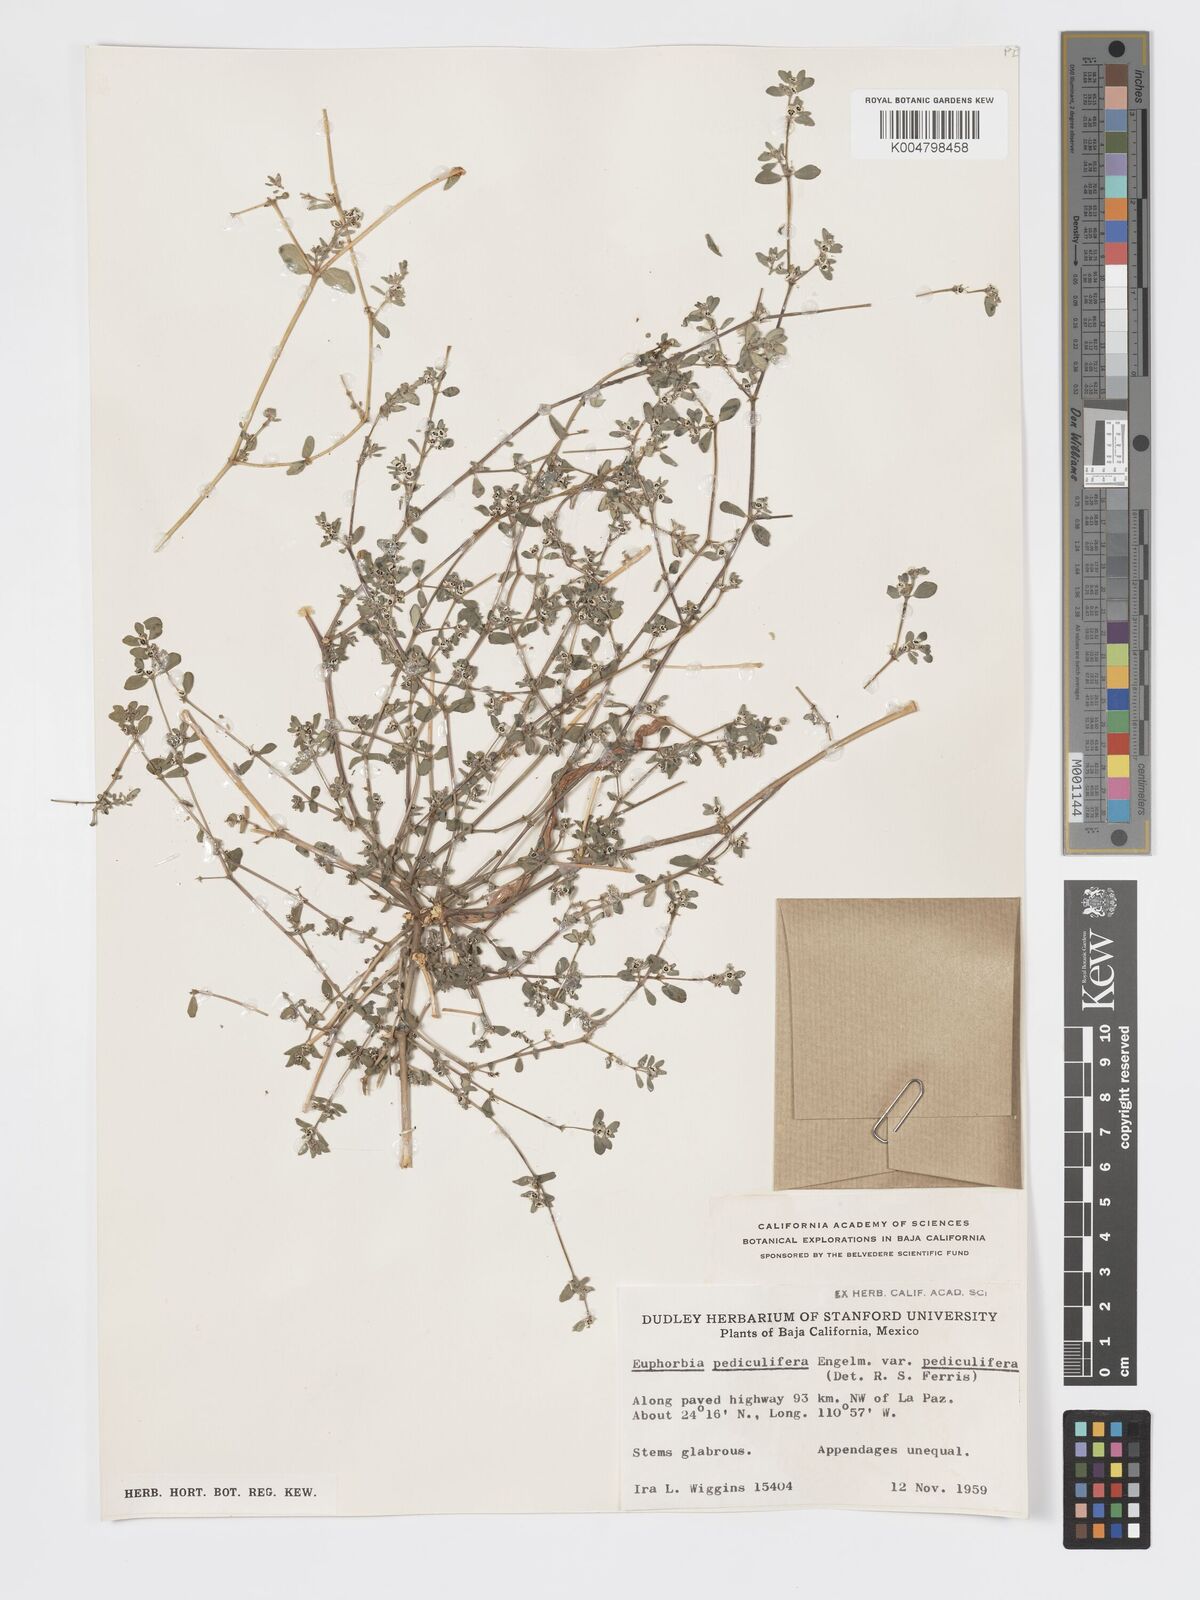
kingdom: Plantae
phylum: Tracheophyta
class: Magnoliopsida
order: Malpighiales
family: Euphorbiaceae
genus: Euphorbia
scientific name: Euphorbia pediculifera
